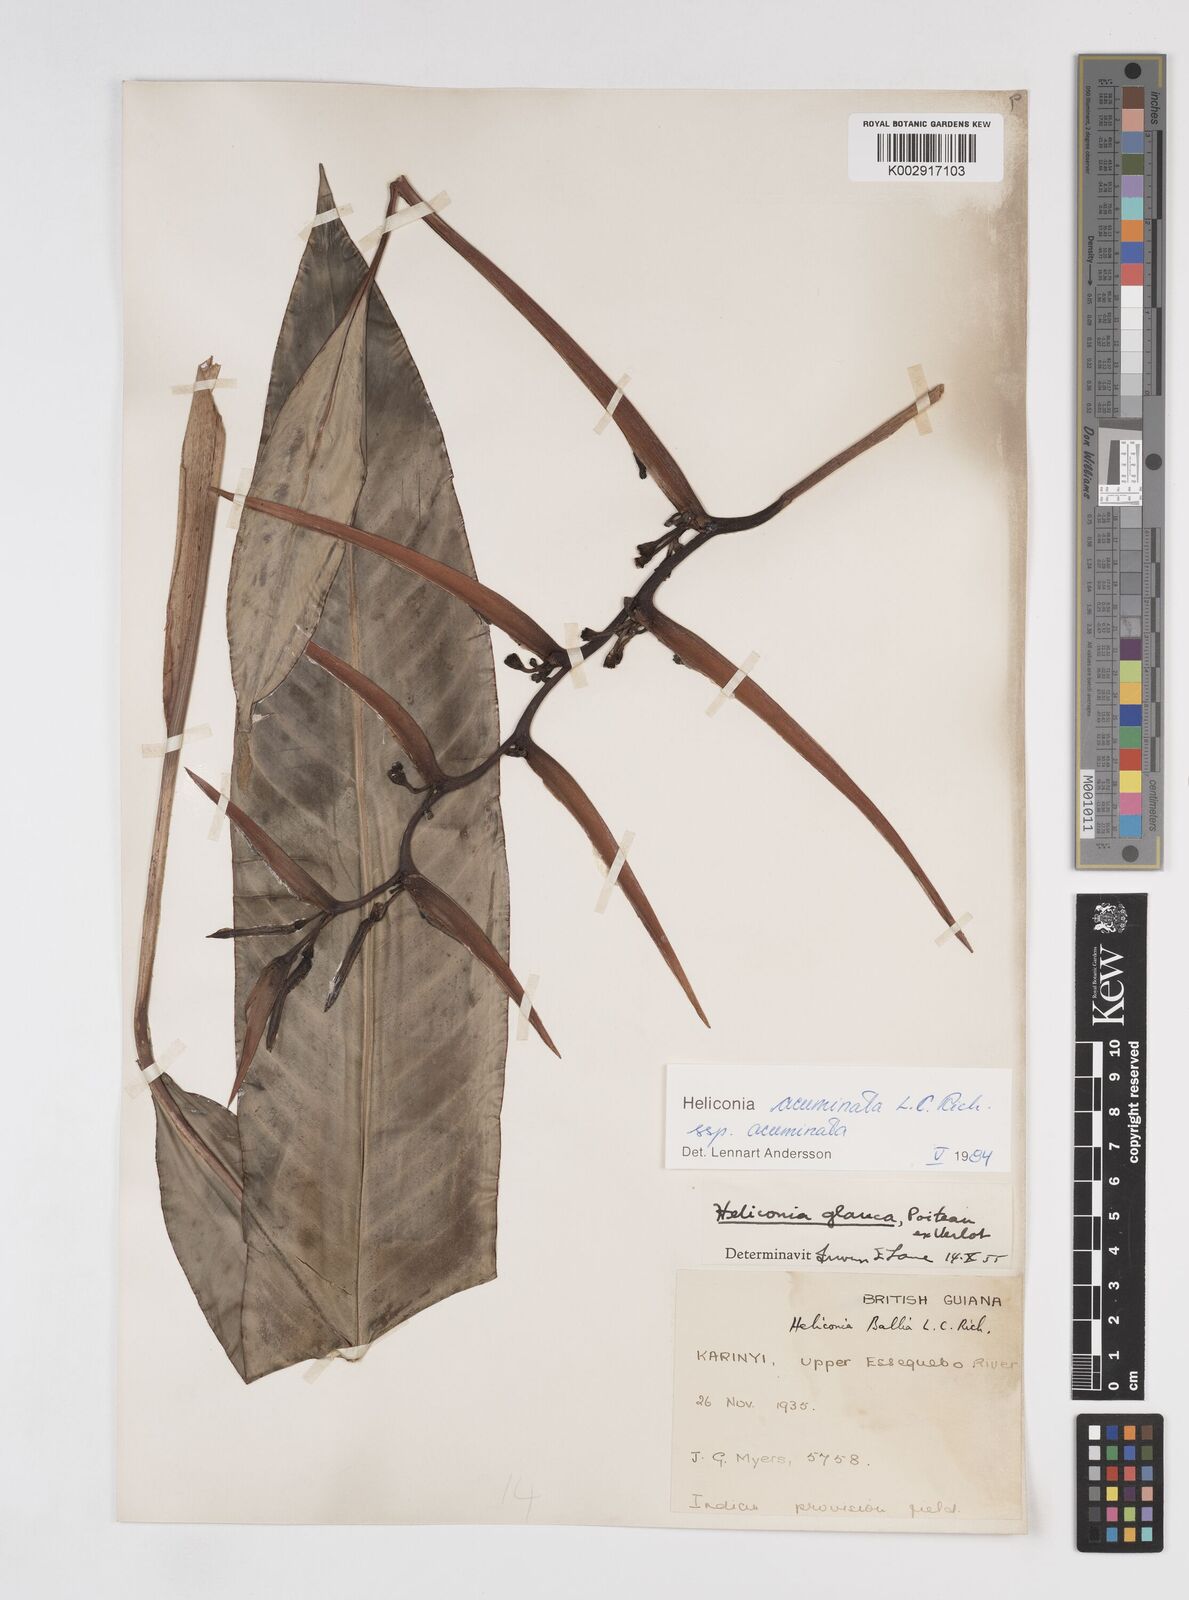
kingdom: Plantae
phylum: Tracheophyta
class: Liliopsida
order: Zingiberales
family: Heliconiaceae
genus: Heliconia
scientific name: Heliconia acuminata
